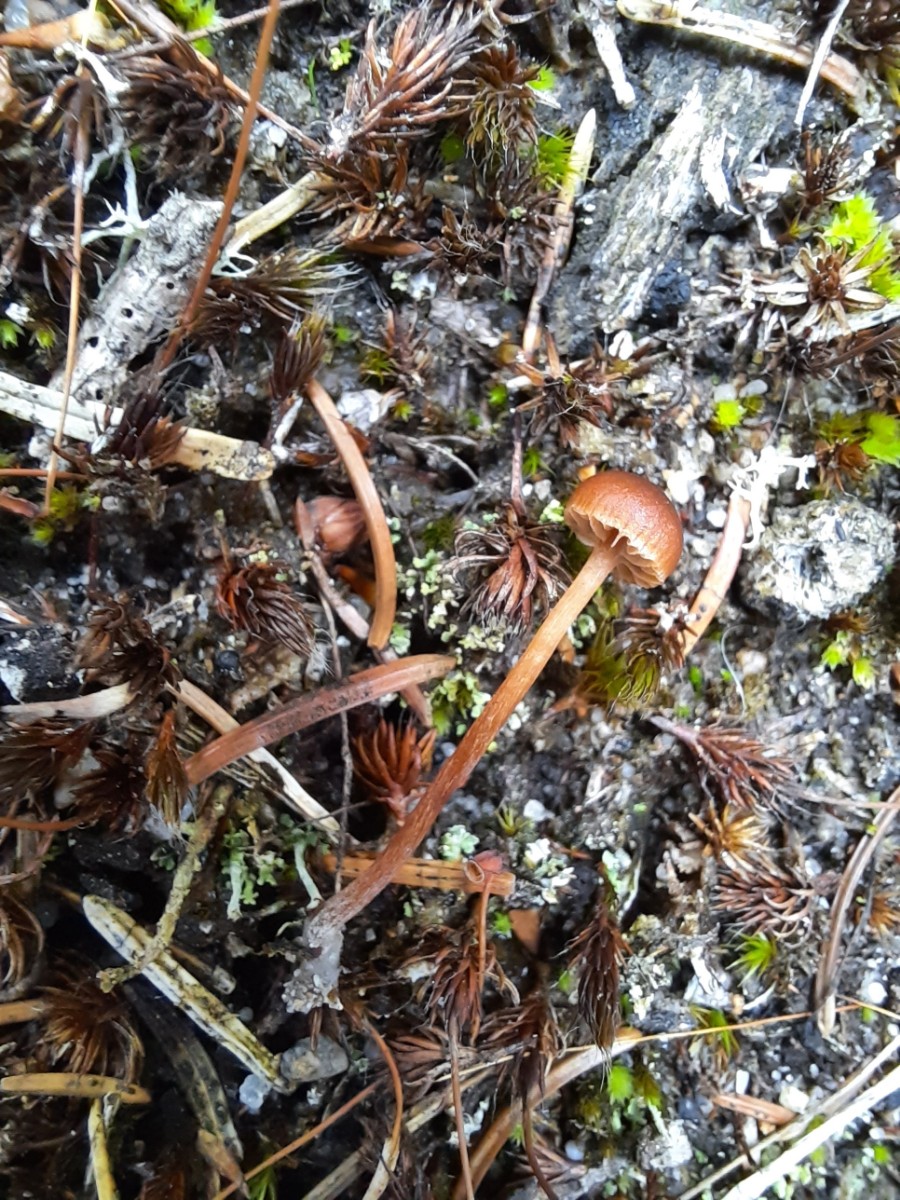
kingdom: Fungi
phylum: Basidiomycota
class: Agaricomycetes
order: Agaricales
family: Strophariaceae
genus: Deconica
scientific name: Deconica montana
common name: rødbrun stråhat
